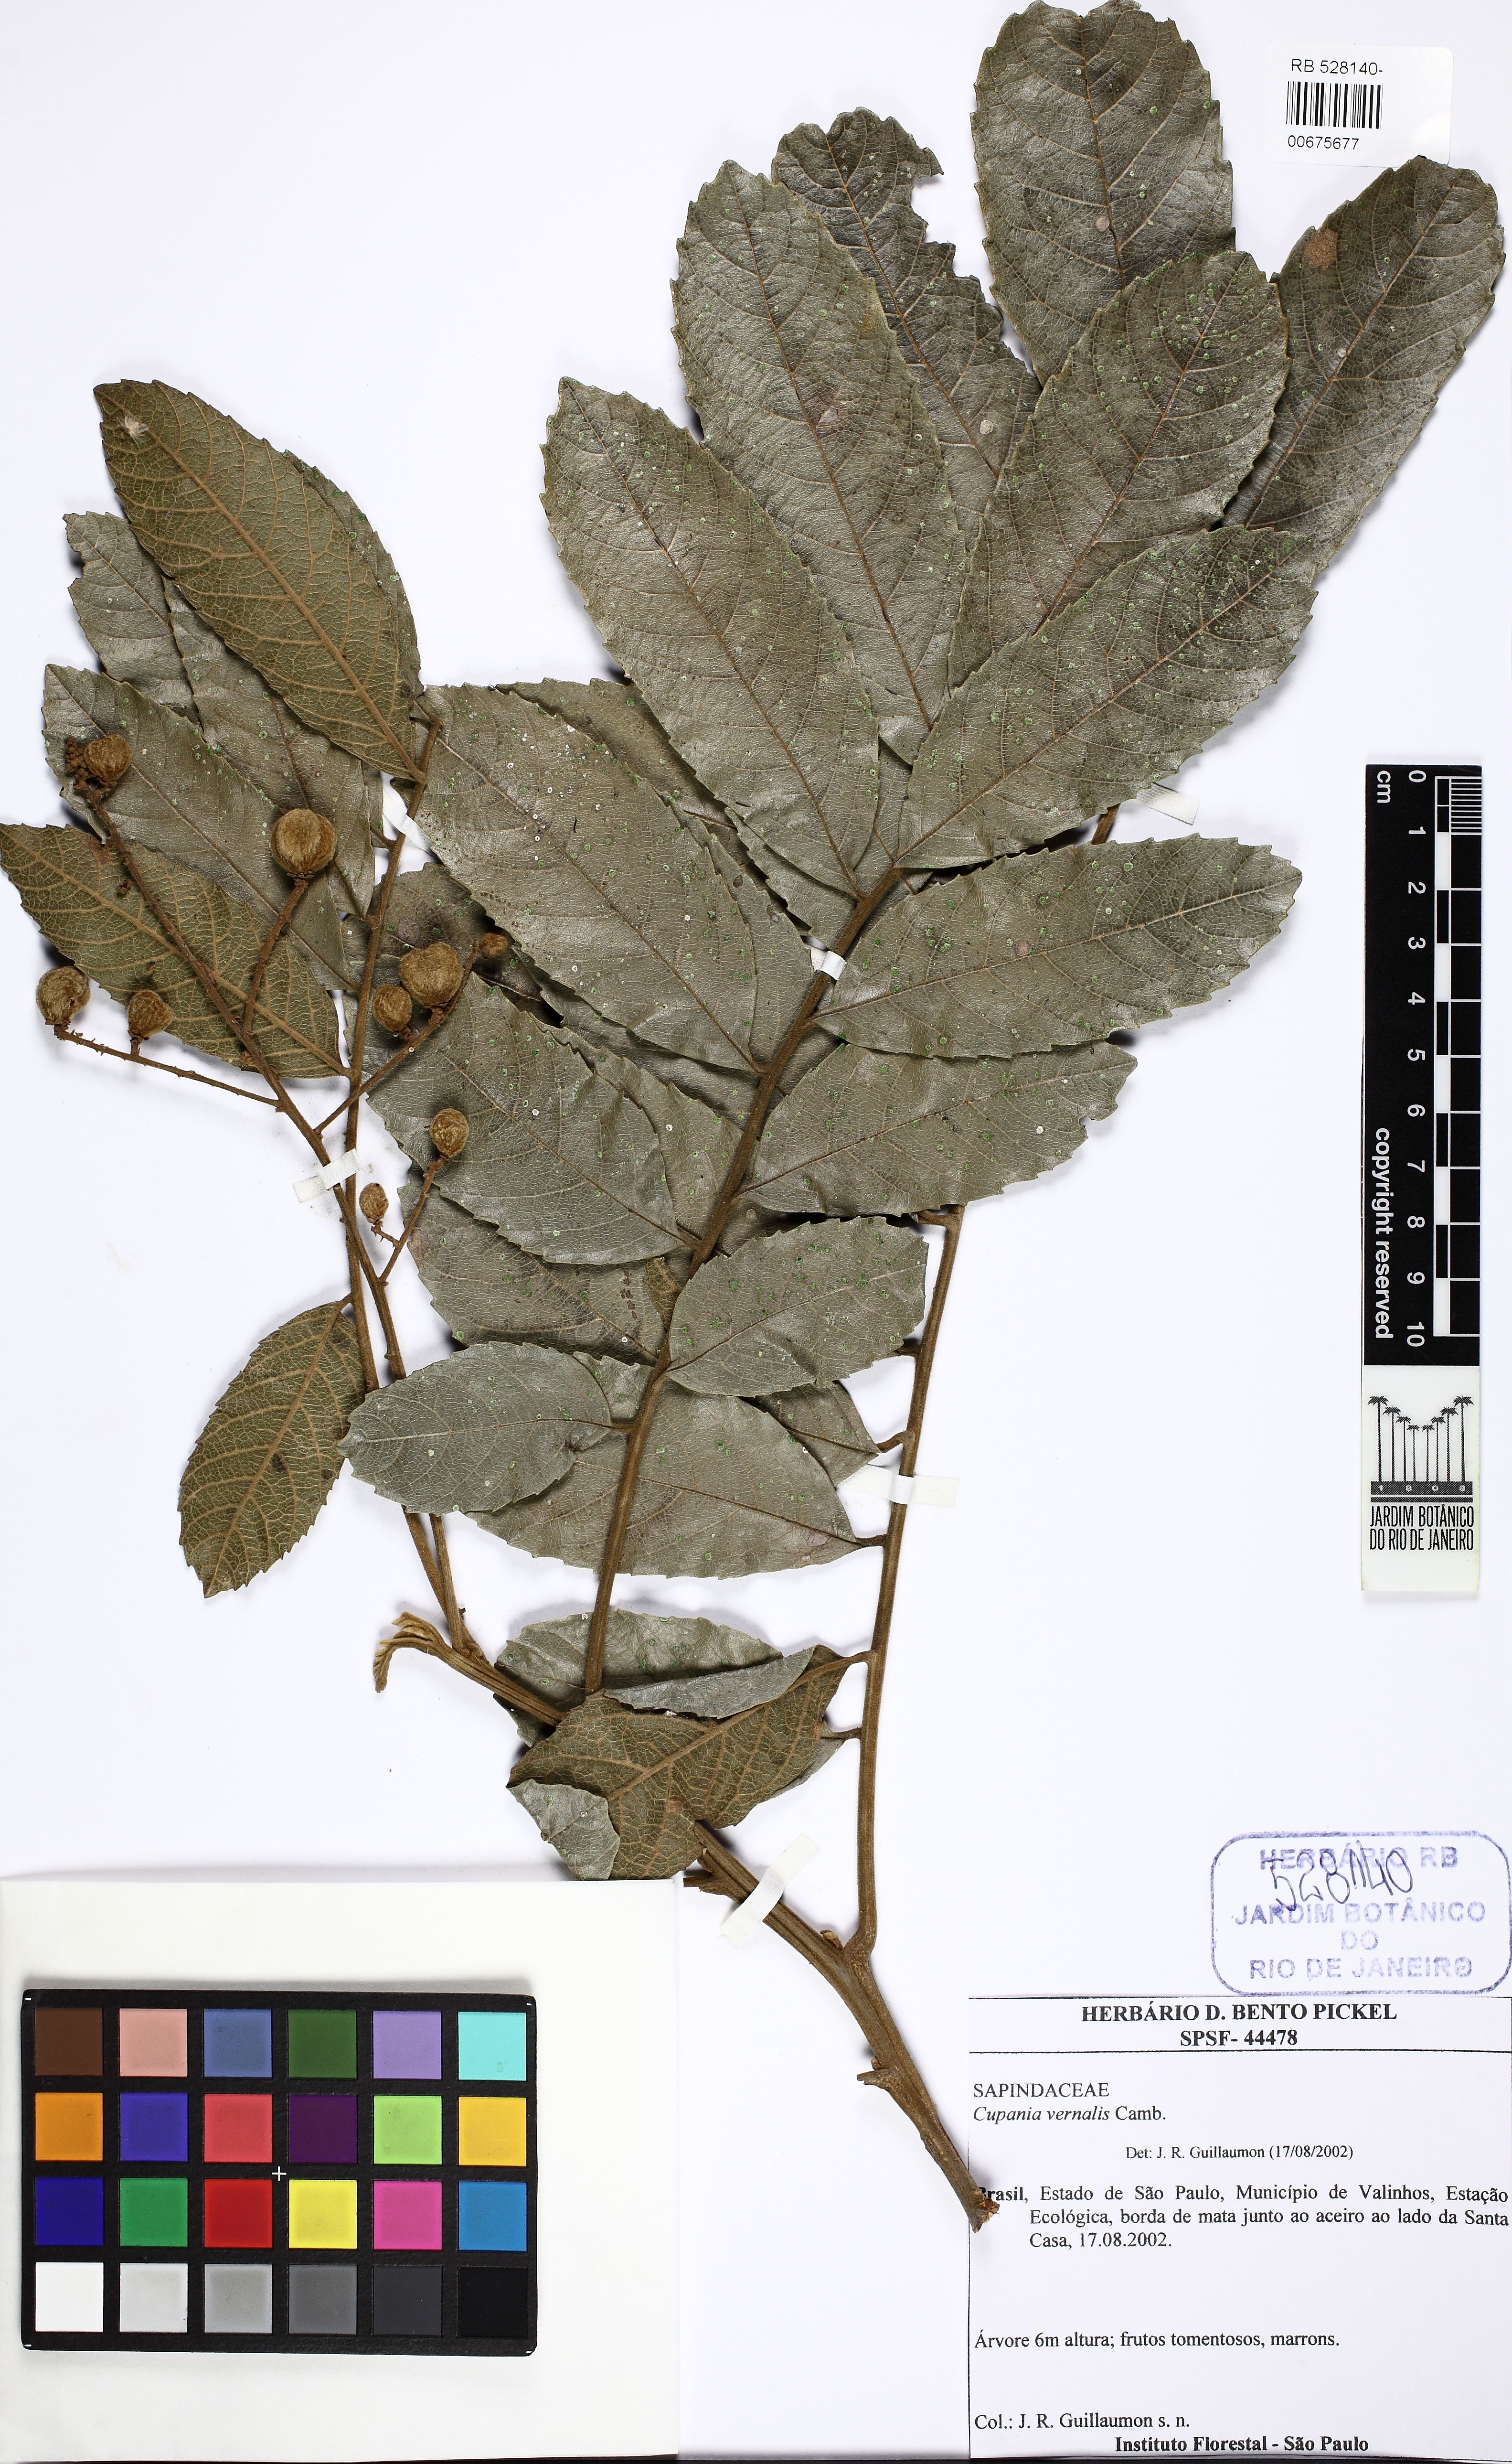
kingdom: Plantae
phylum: Tracheophyta
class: Magnoliopsida
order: Sapindales
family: Sapindaceae
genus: Cupania
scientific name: Cupania vernalis
